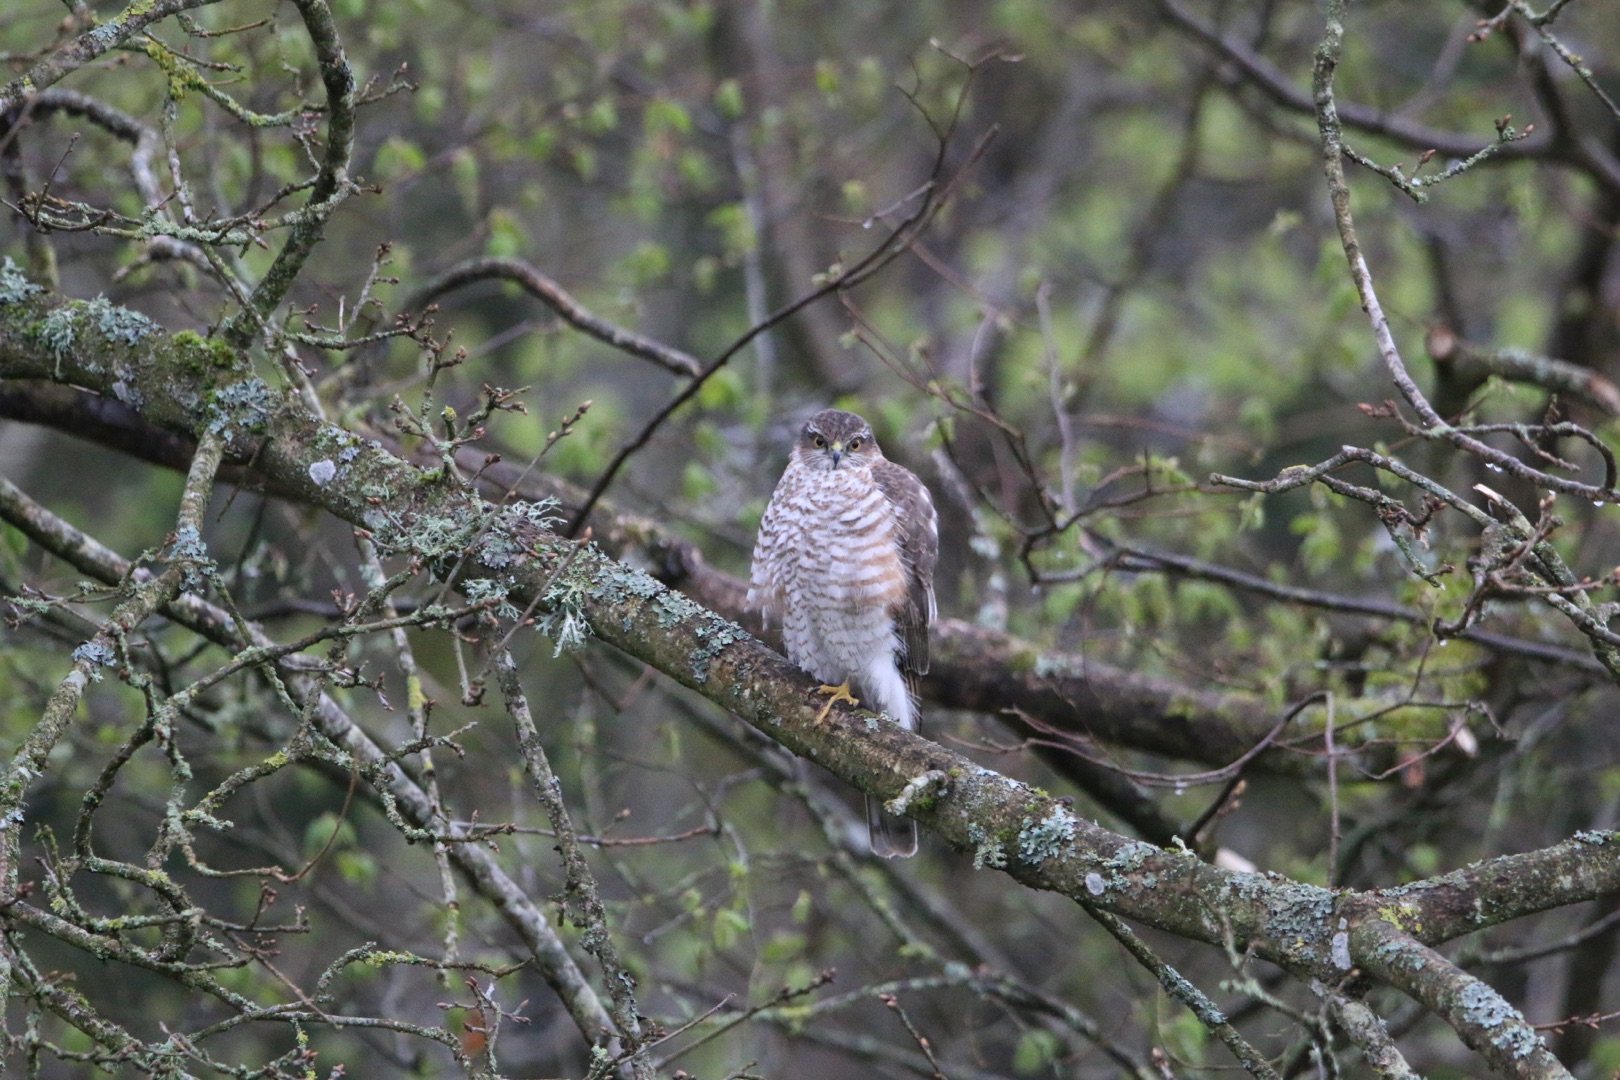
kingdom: Animalia
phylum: Chordata
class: Aves
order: Accipitriformes
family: Accipitridae
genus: Accipiter
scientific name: Accipiter nisus
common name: Spurvehøg
